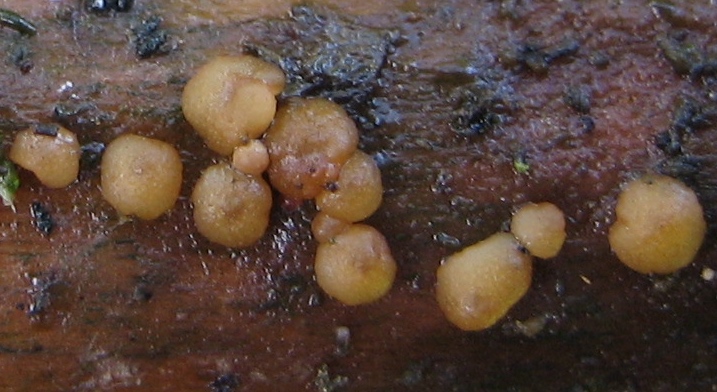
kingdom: Fungi
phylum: Ascomycota
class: Sordariomycetes
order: Hypocreales
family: Hypocreaceae
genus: Trichoderma
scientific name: Trichoderma
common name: kødkerne
